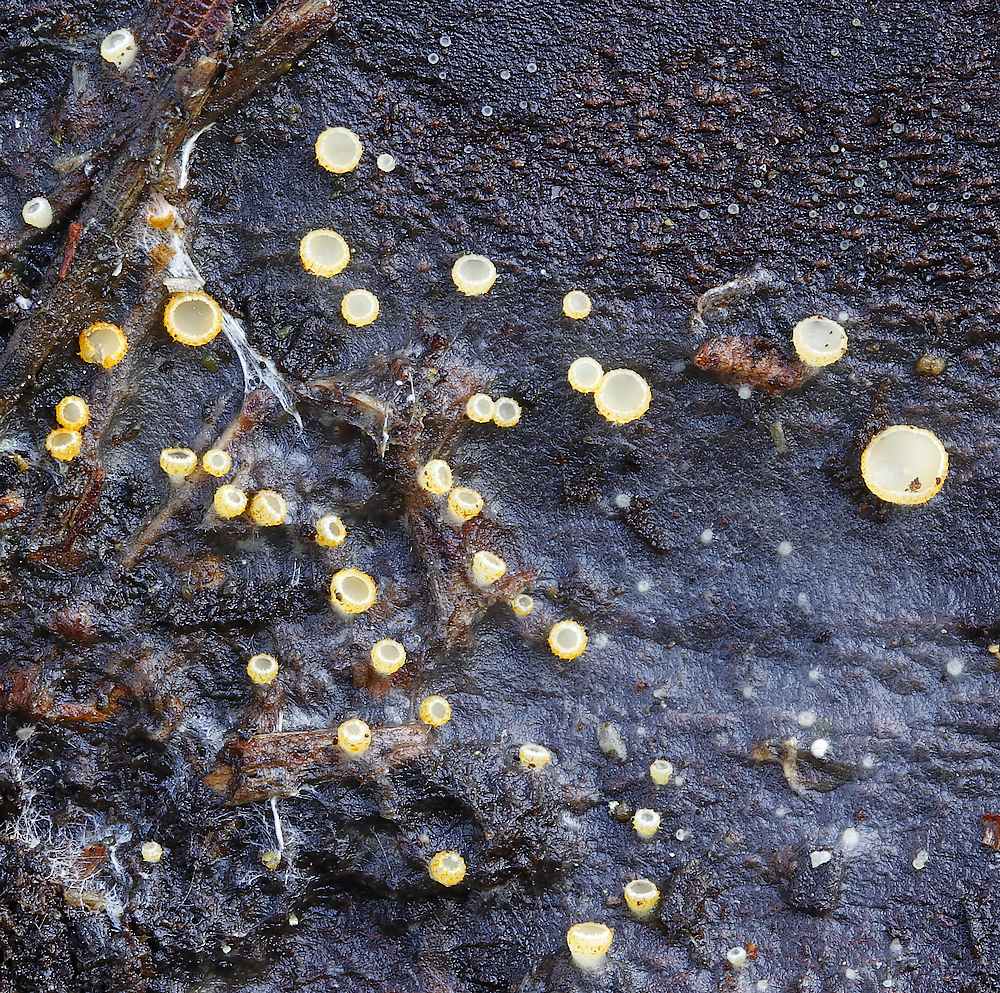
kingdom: Fungi
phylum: Ascomycota
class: Leotiomycetes
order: Helotiales
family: Arachnopezizaceae
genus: Arachnopeziza
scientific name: Arachnopeziza aurelia
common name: flamme-spindskive
